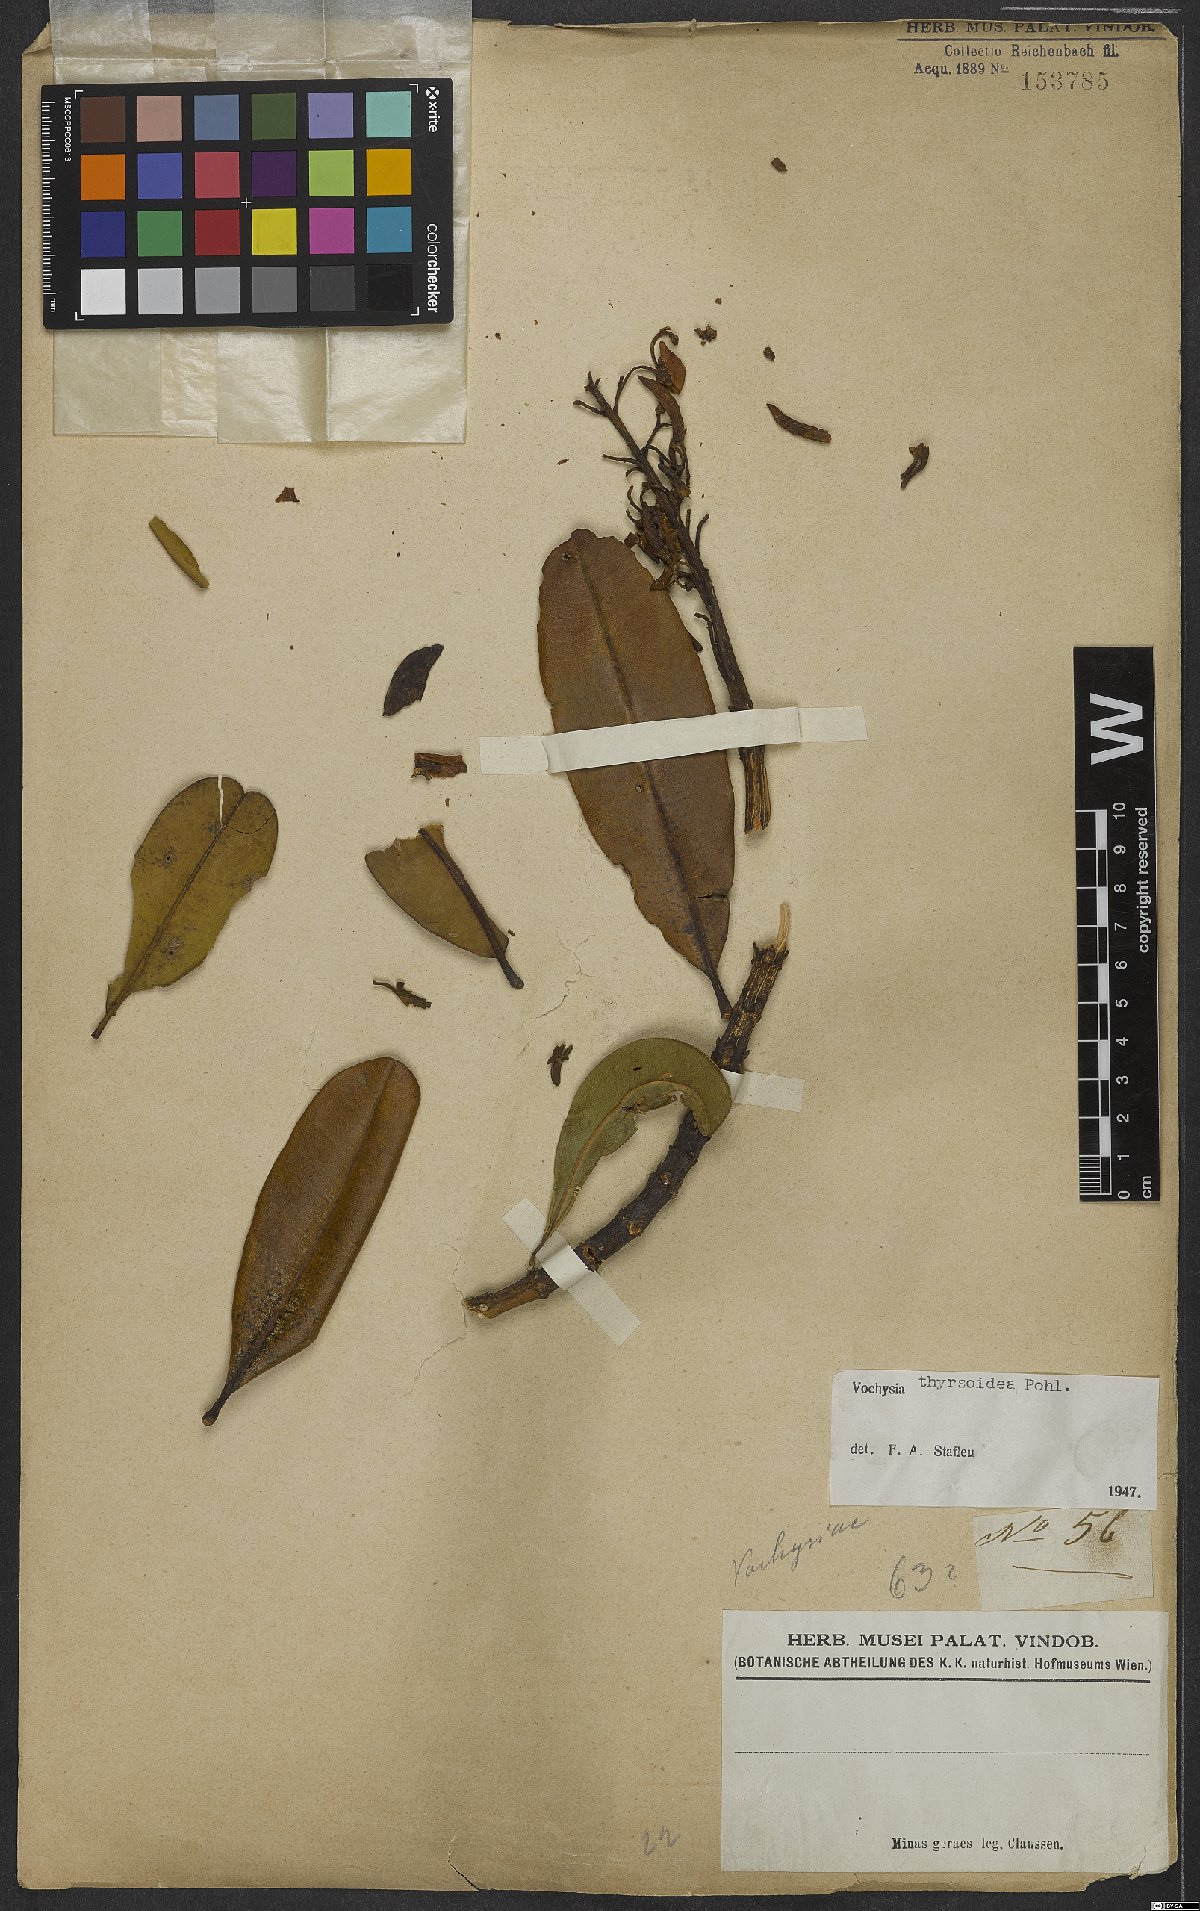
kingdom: Plantae
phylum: Tracheophyta
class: Magnoliopsida
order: Myrtales
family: Vochysiaceae
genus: Vochysia
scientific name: Vochysia thyrsoidea
